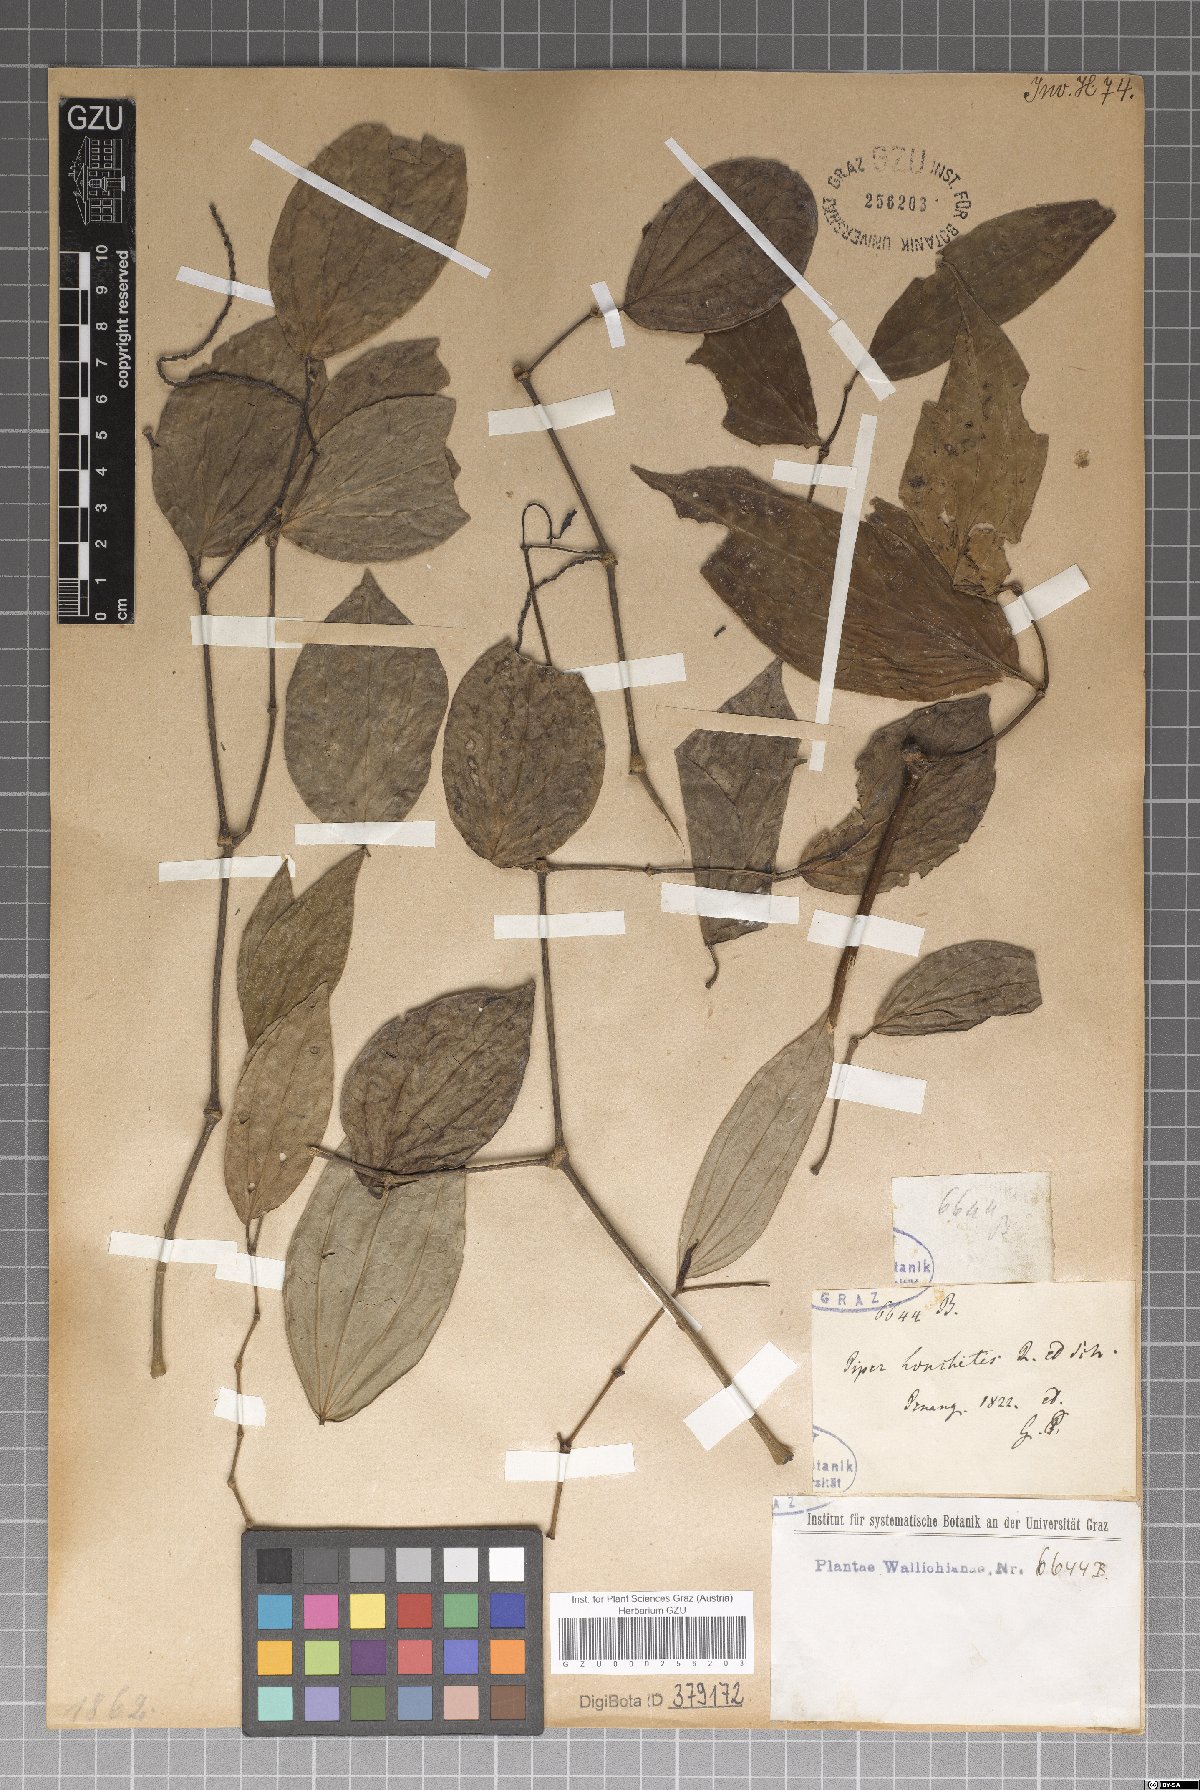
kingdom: Plantae
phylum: Tracheophyta
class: Magnoliopsida
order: Piperales
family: Piperaceae
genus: Piper
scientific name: Piper lonchites
